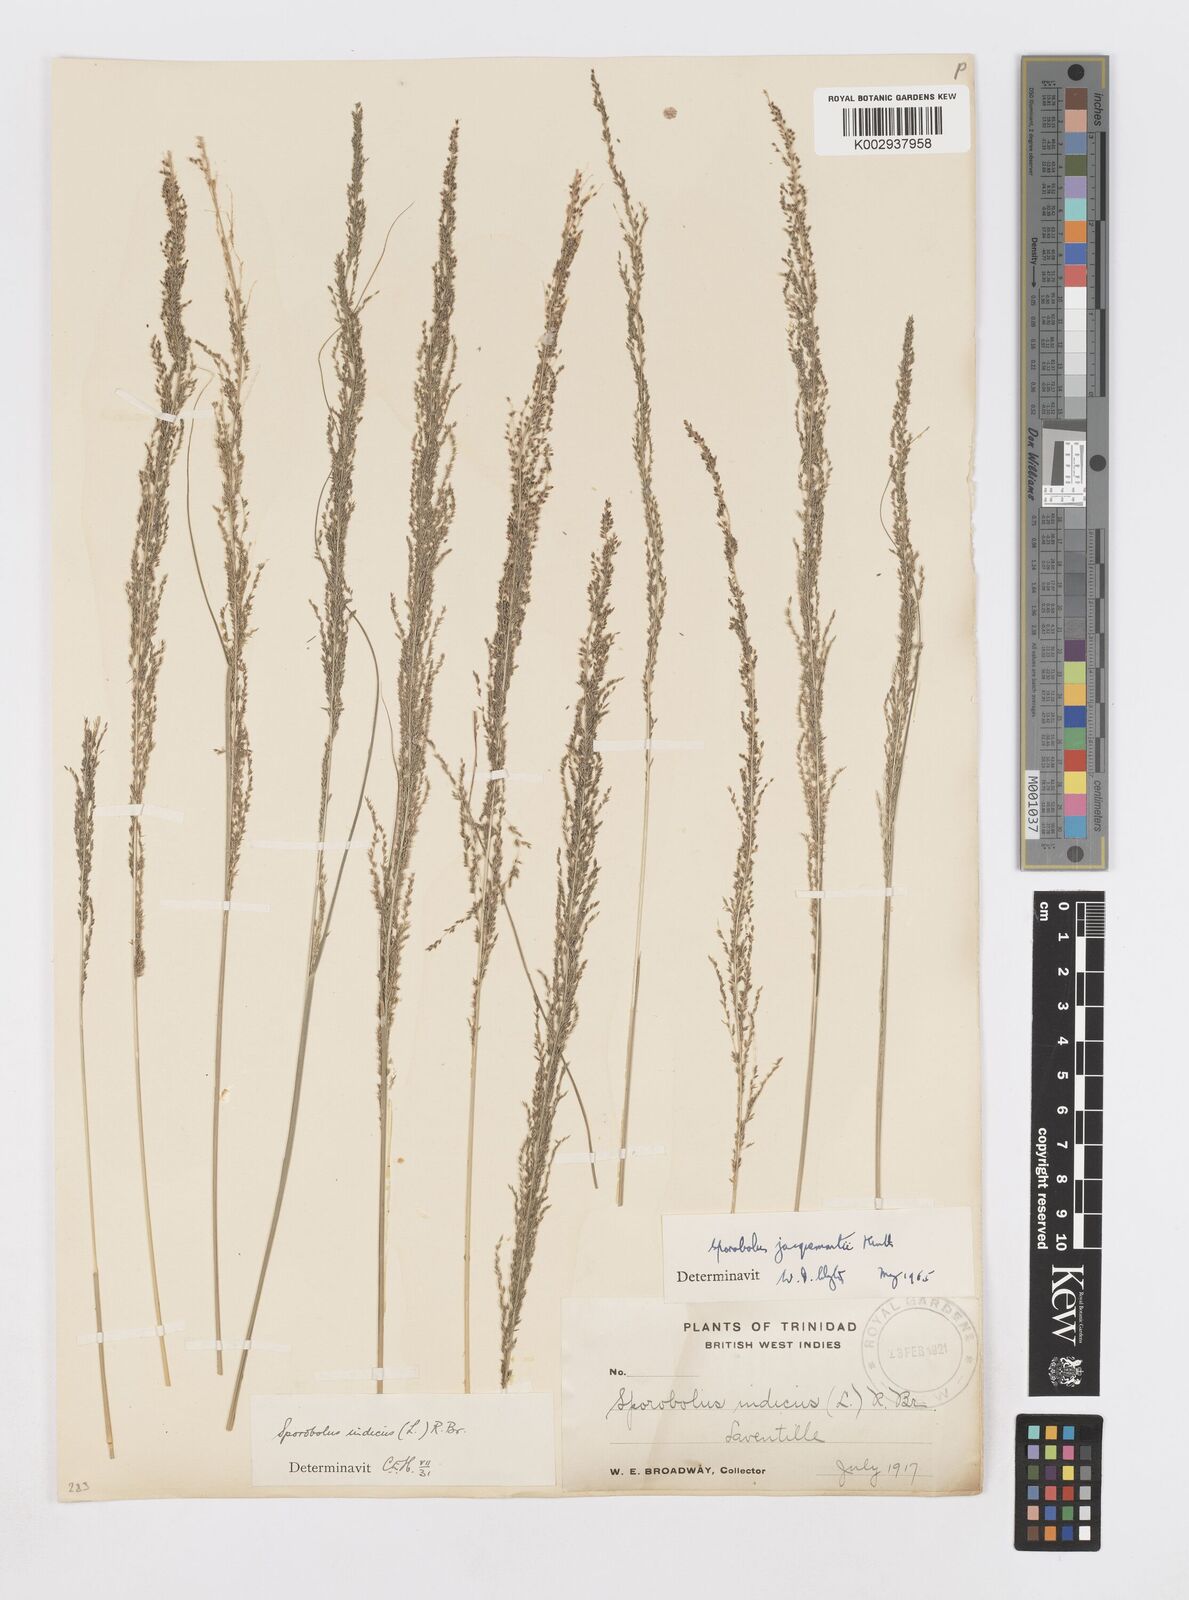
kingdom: Plantae
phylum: Tracheophyta
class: Liliopsida
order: Poales
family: Poaceae
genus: Sporobolus
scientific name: Sporobolus pyramidalis
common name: West indian dropseed
